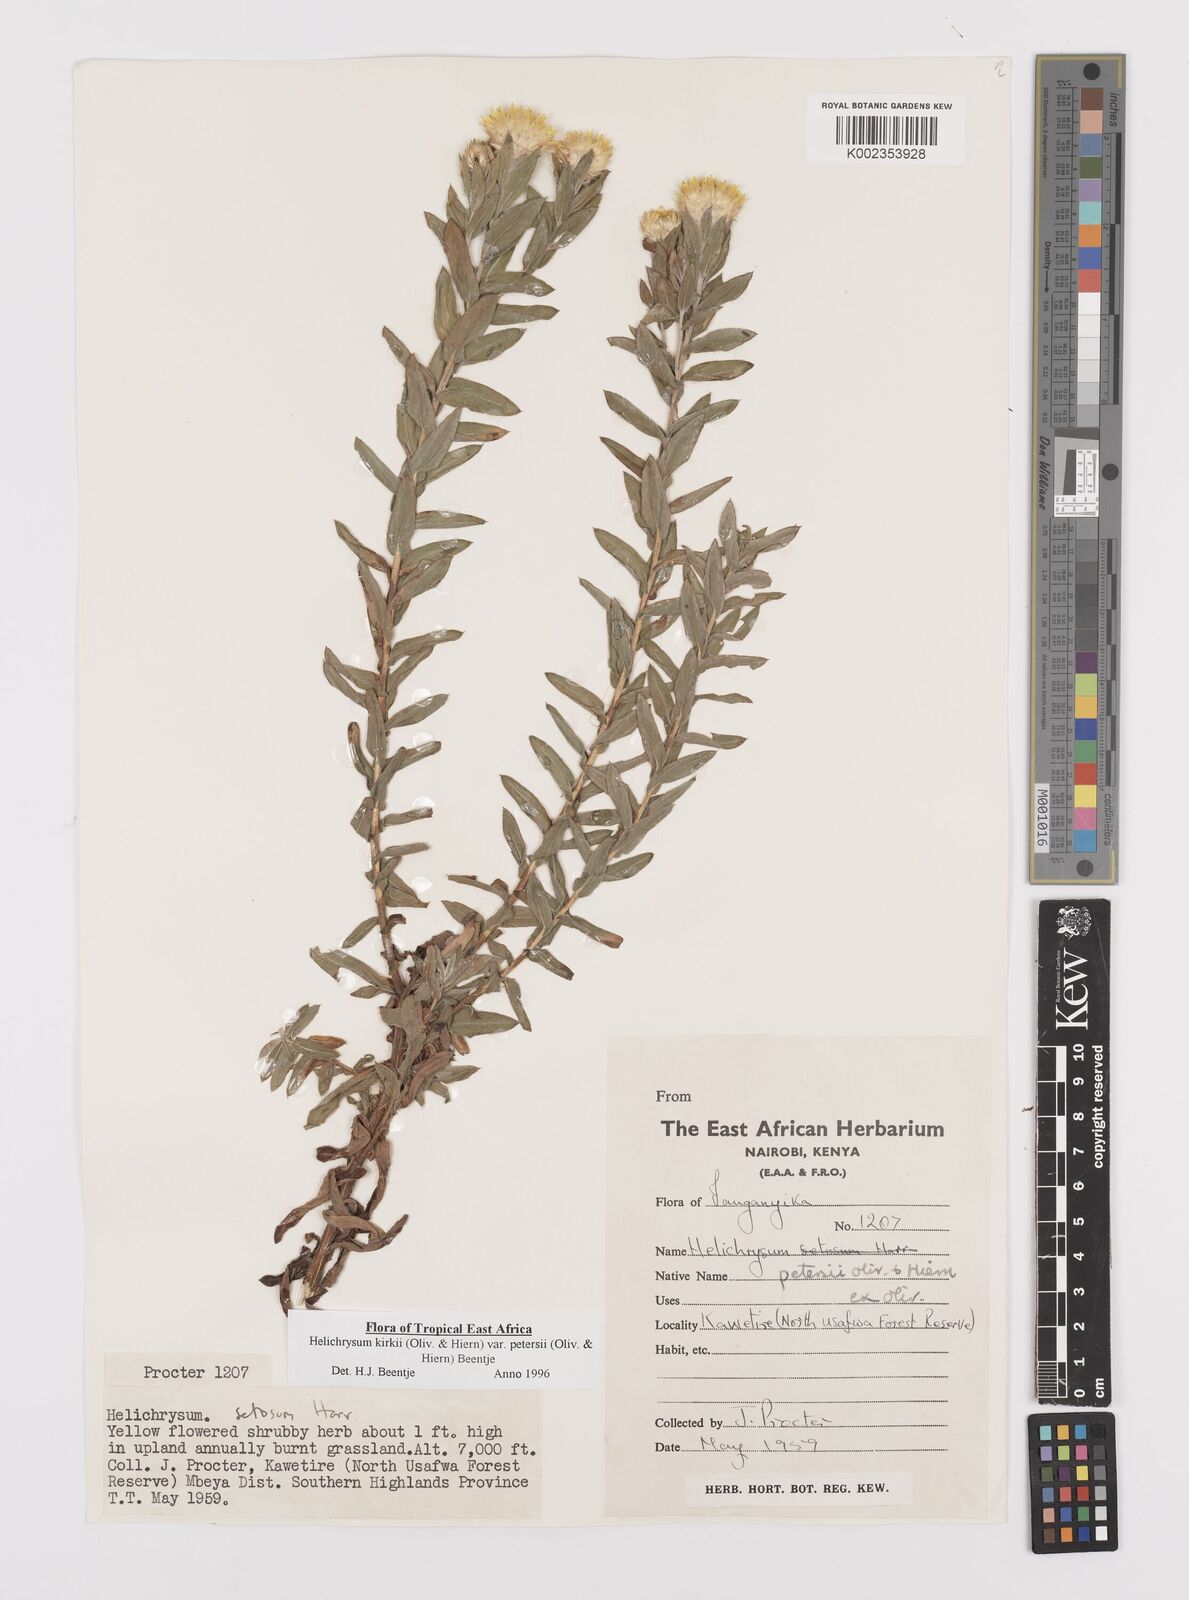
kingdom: Plantae
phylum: Tracheophyta
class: Magnoliopsida
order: Asterales
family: Asteraceae
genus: Helichrysum
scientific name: Helichrysum kirkii
